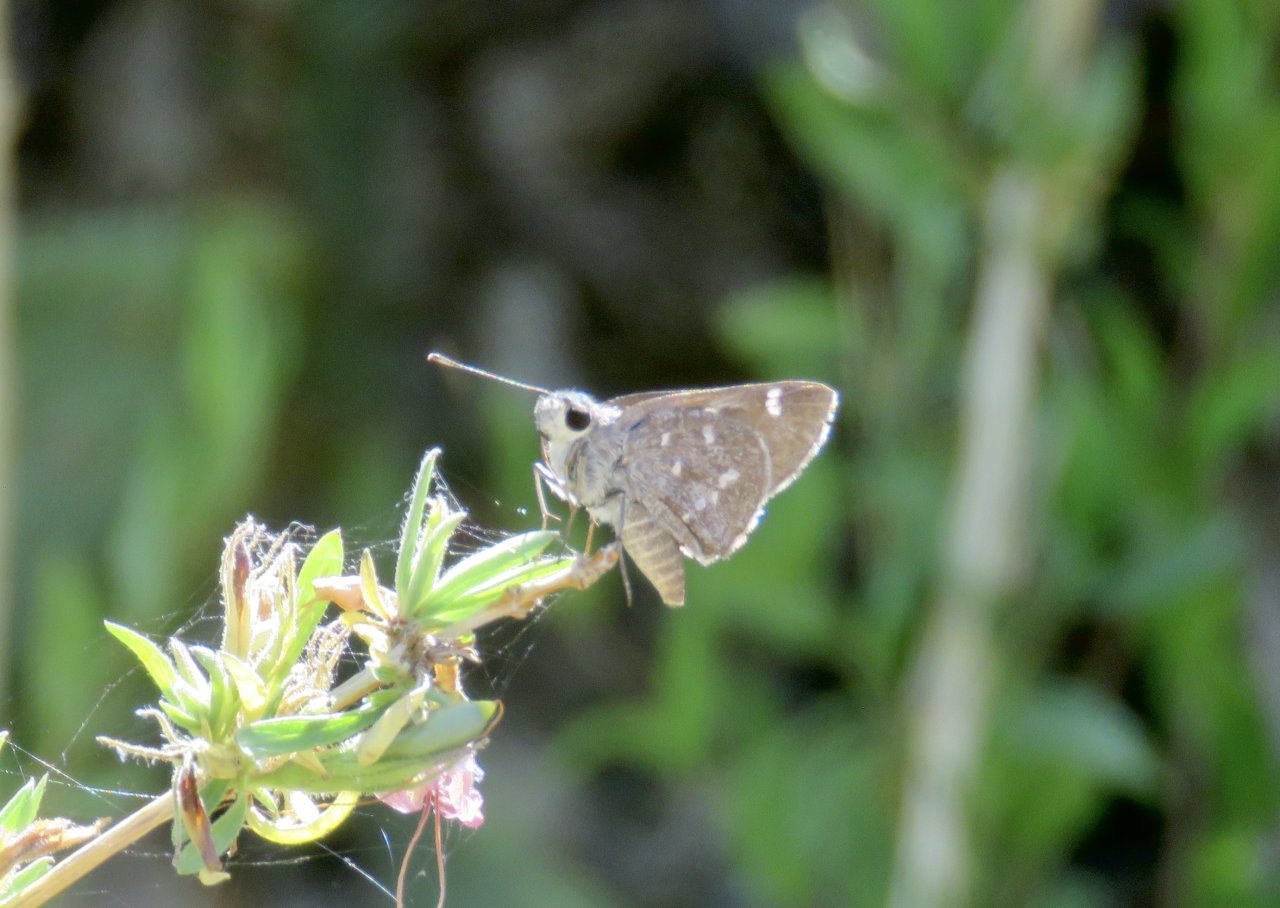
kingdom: Animalia
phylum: Arthropoda
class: Insecta
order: Lepidoptera
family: Hesperiidae
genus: Mastor
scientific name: Mastor aenus
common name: Bronze Roadside-Skipper
